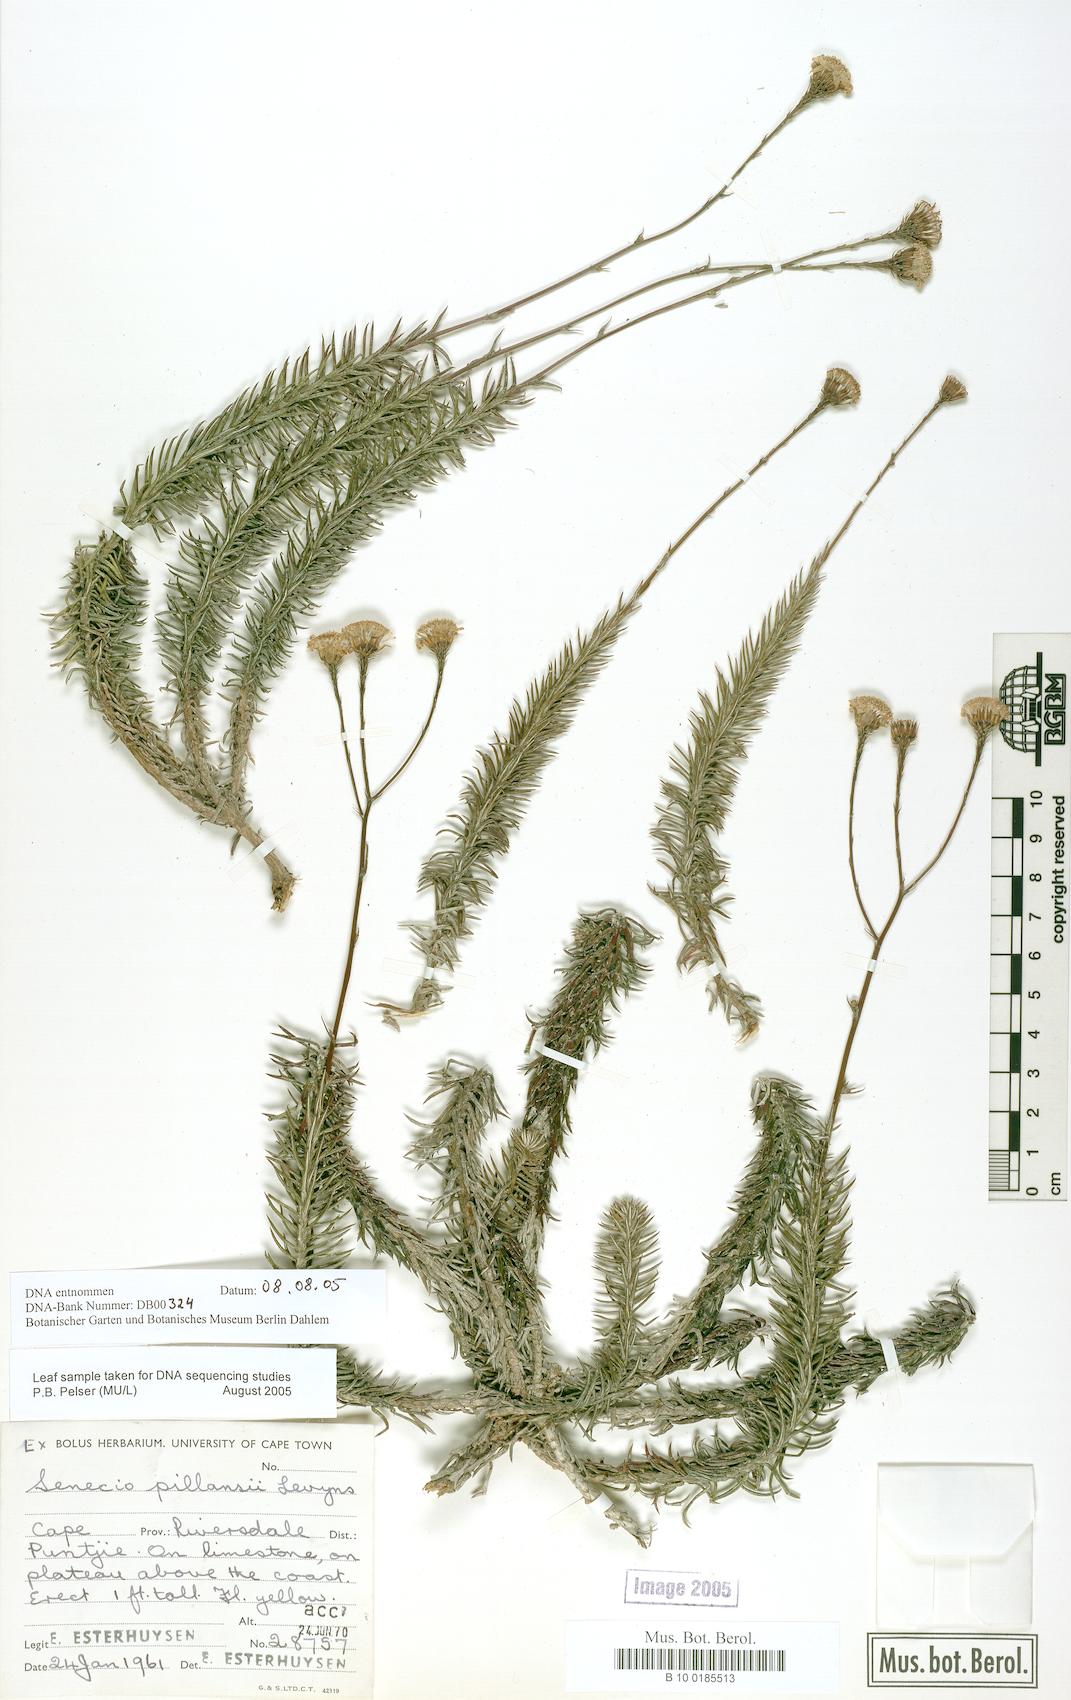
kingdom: Plantae
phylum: Tracheophyta
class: Magnoliopsida
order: Asterales
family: Asteraceae
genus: Senecio
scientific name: Senecio pillansii
